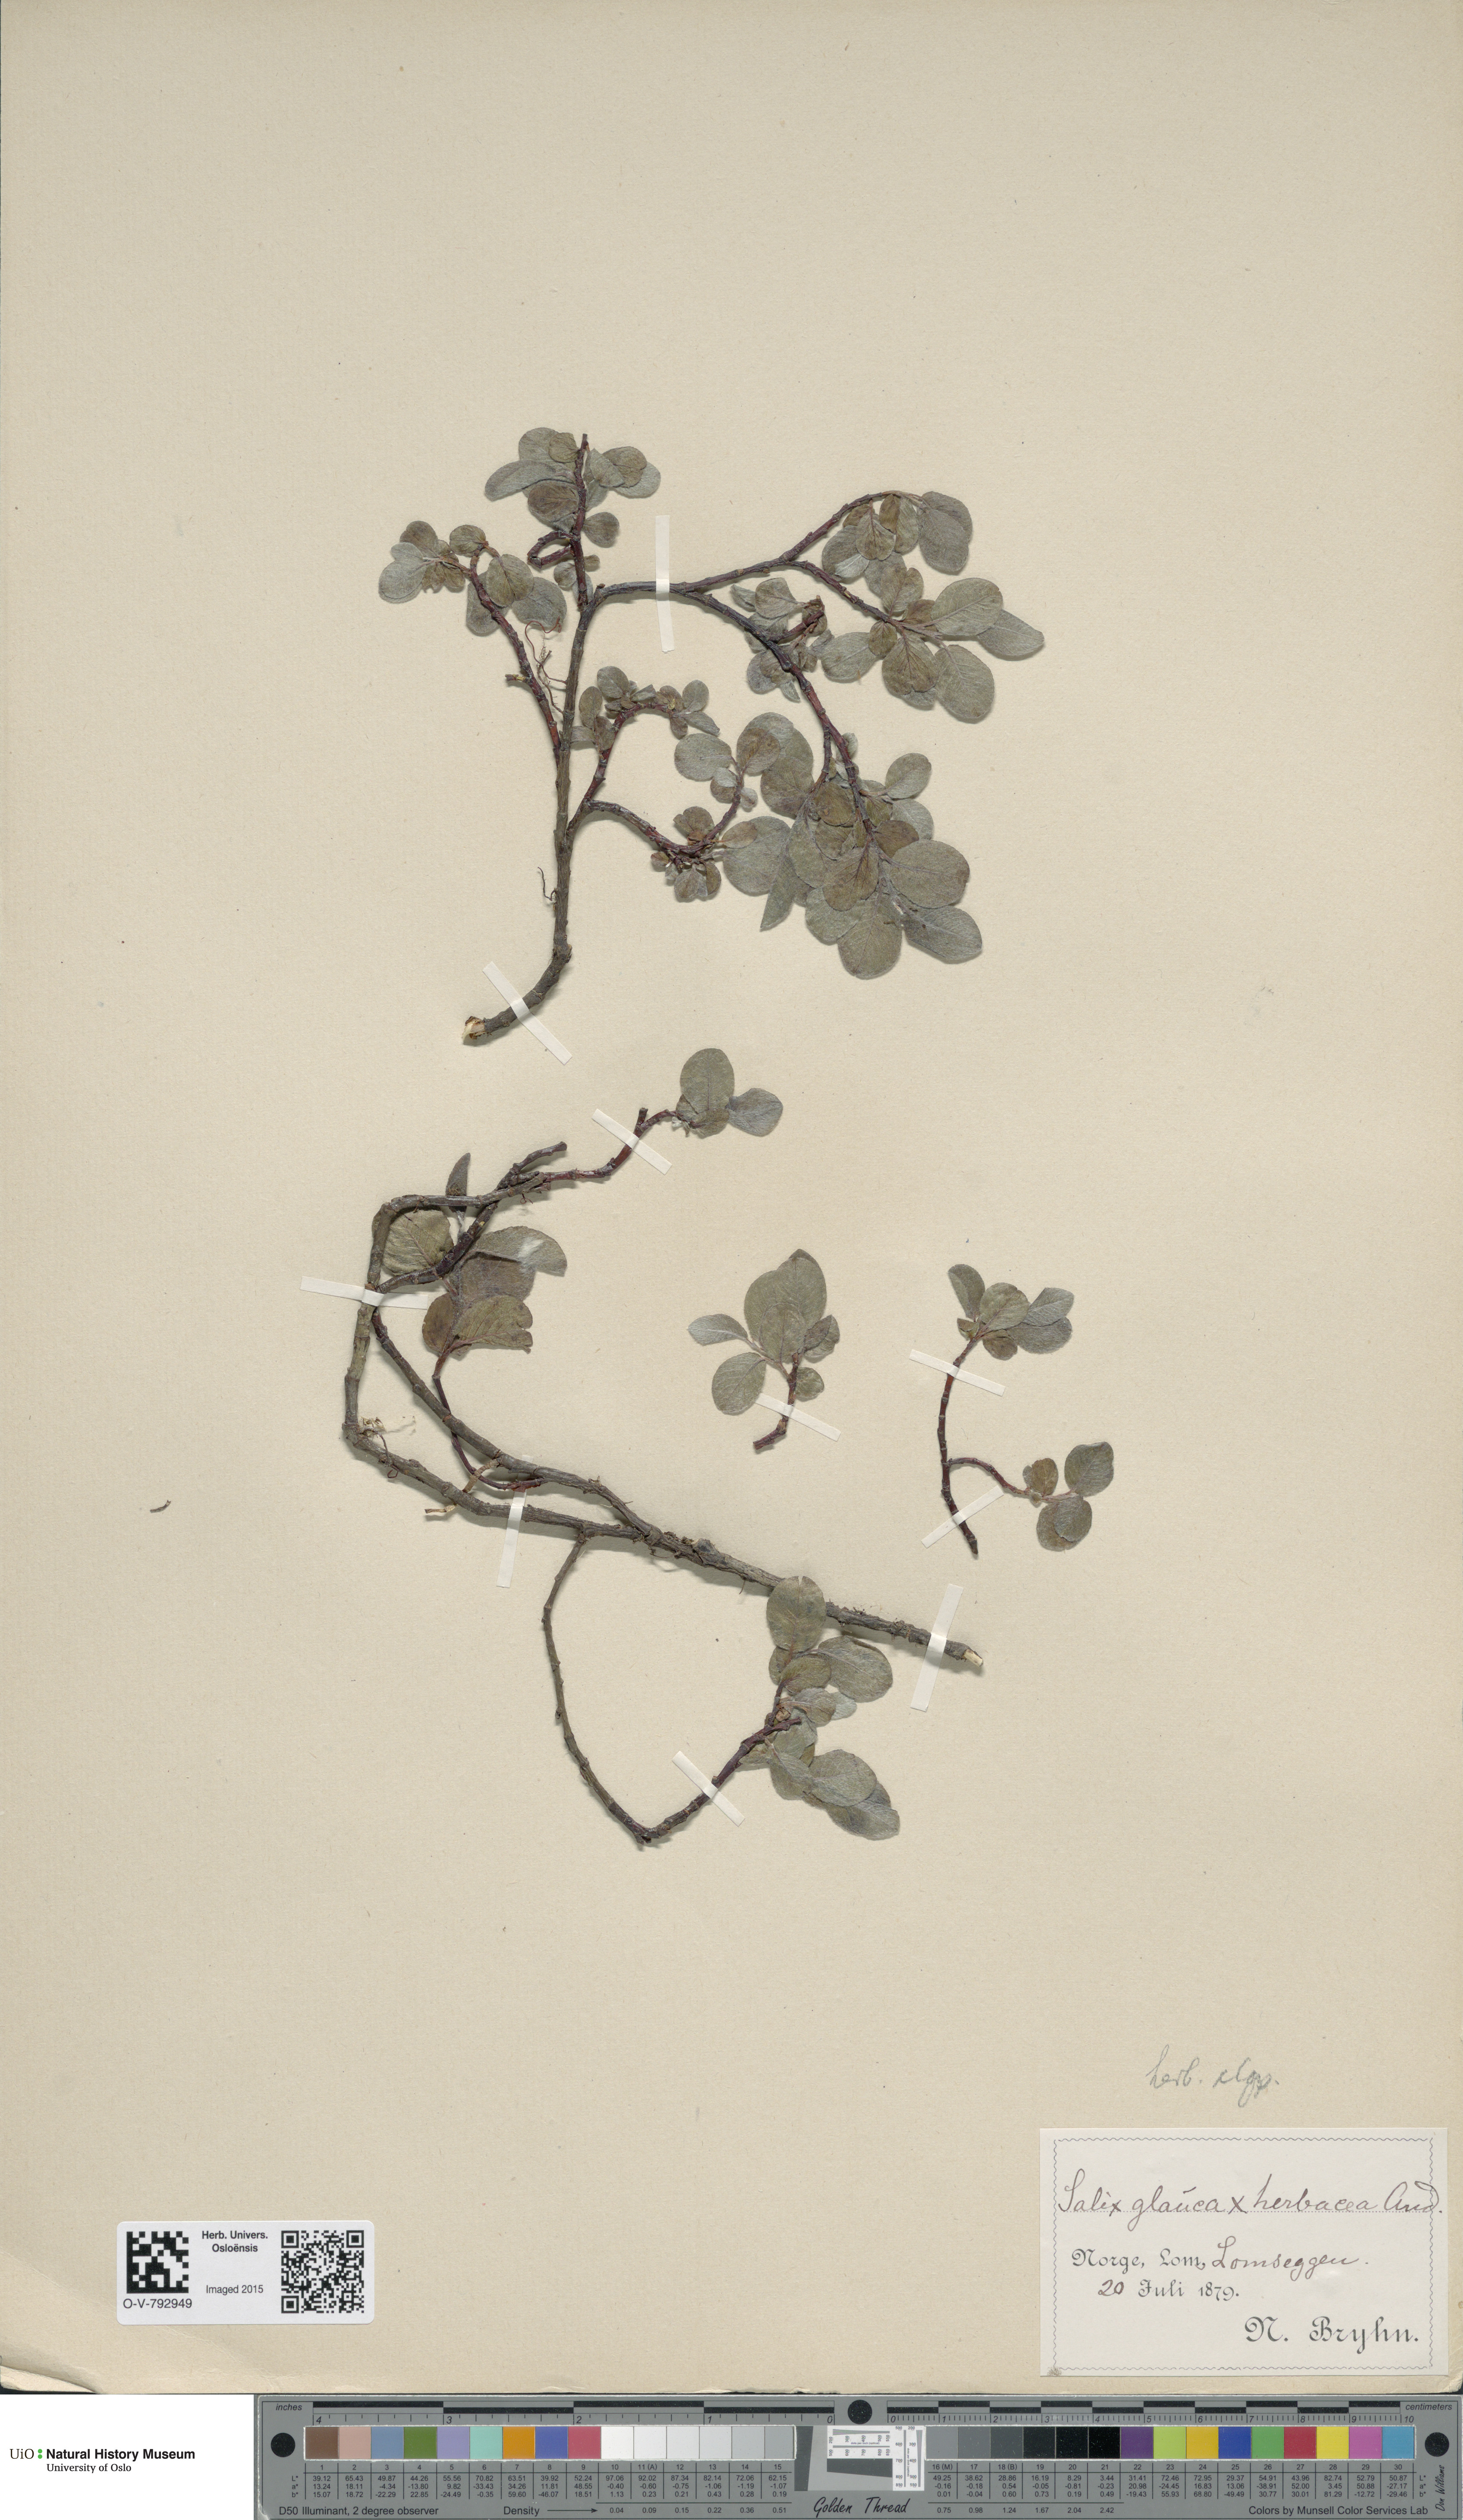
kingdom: Plantae
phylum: Tracheophyta
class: Magnoliopsida
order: Malpighiales
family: Salicaceae
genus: Salix
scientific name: Salix
